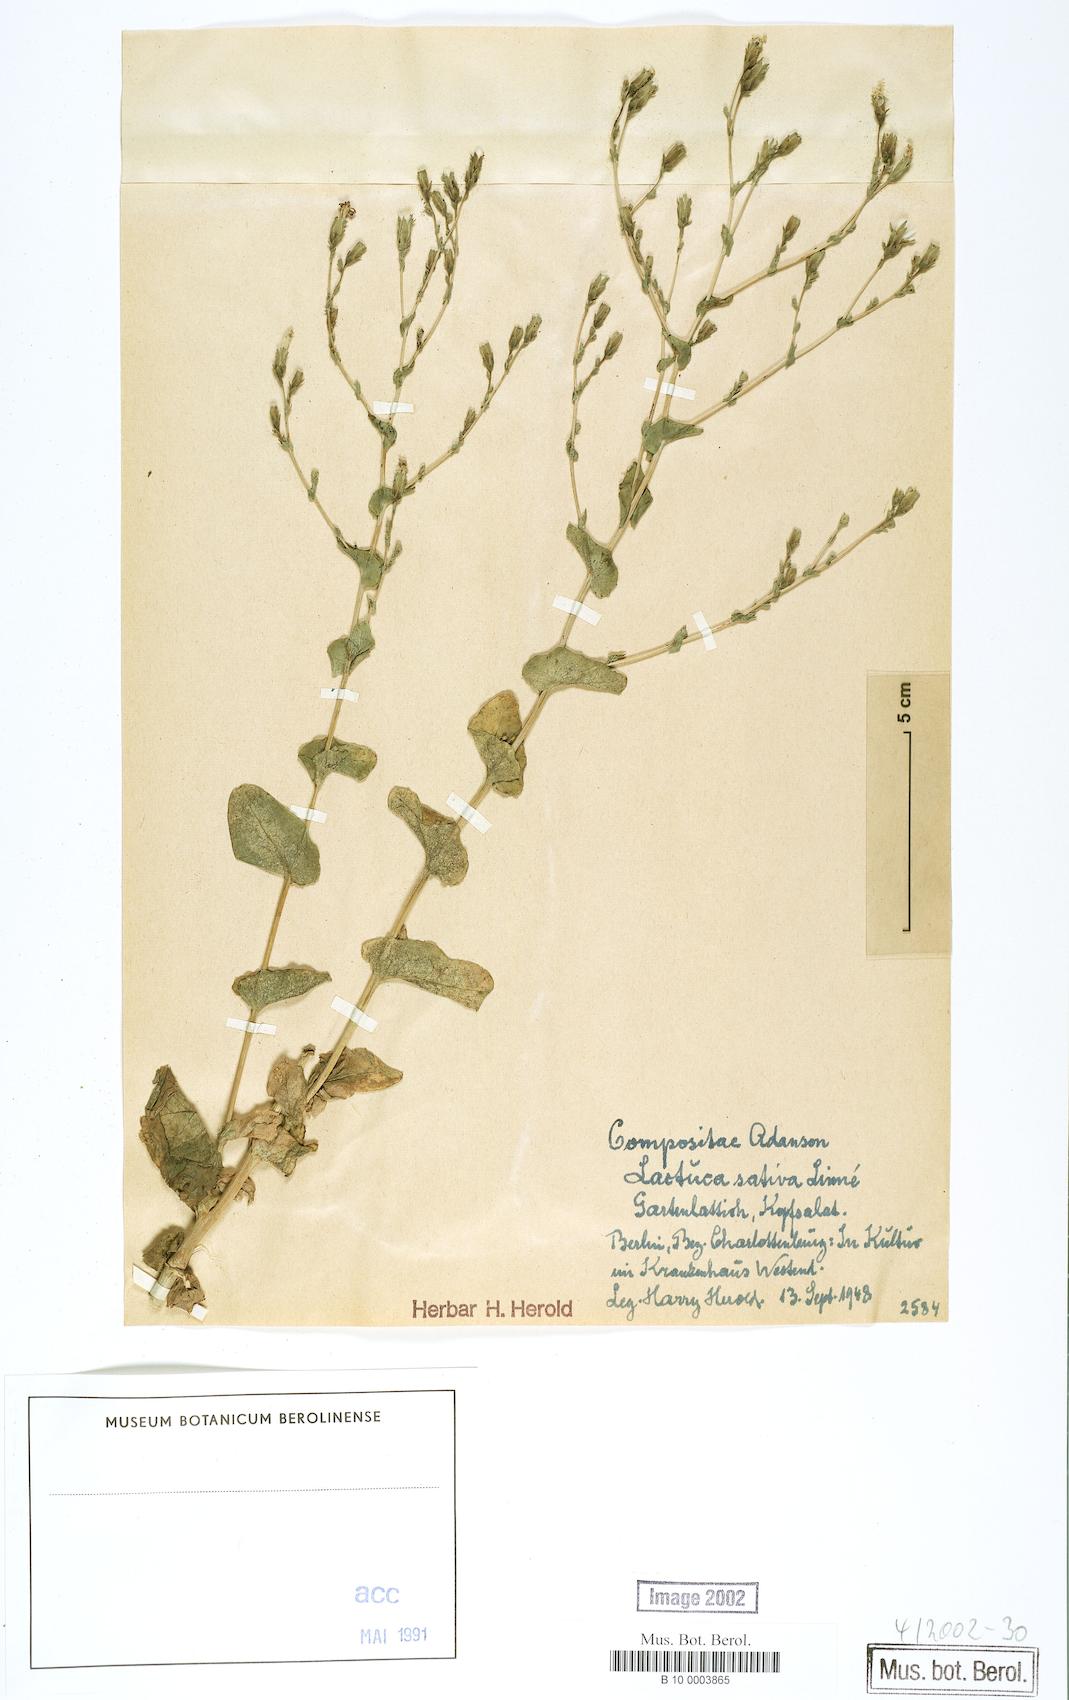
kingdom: Plantae
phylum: Tracheophyta
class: Magnoliopsida
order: Asterales
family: Asteraceae
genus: Lactuca
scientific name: Lactuca sativa
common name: Garden lettuce
